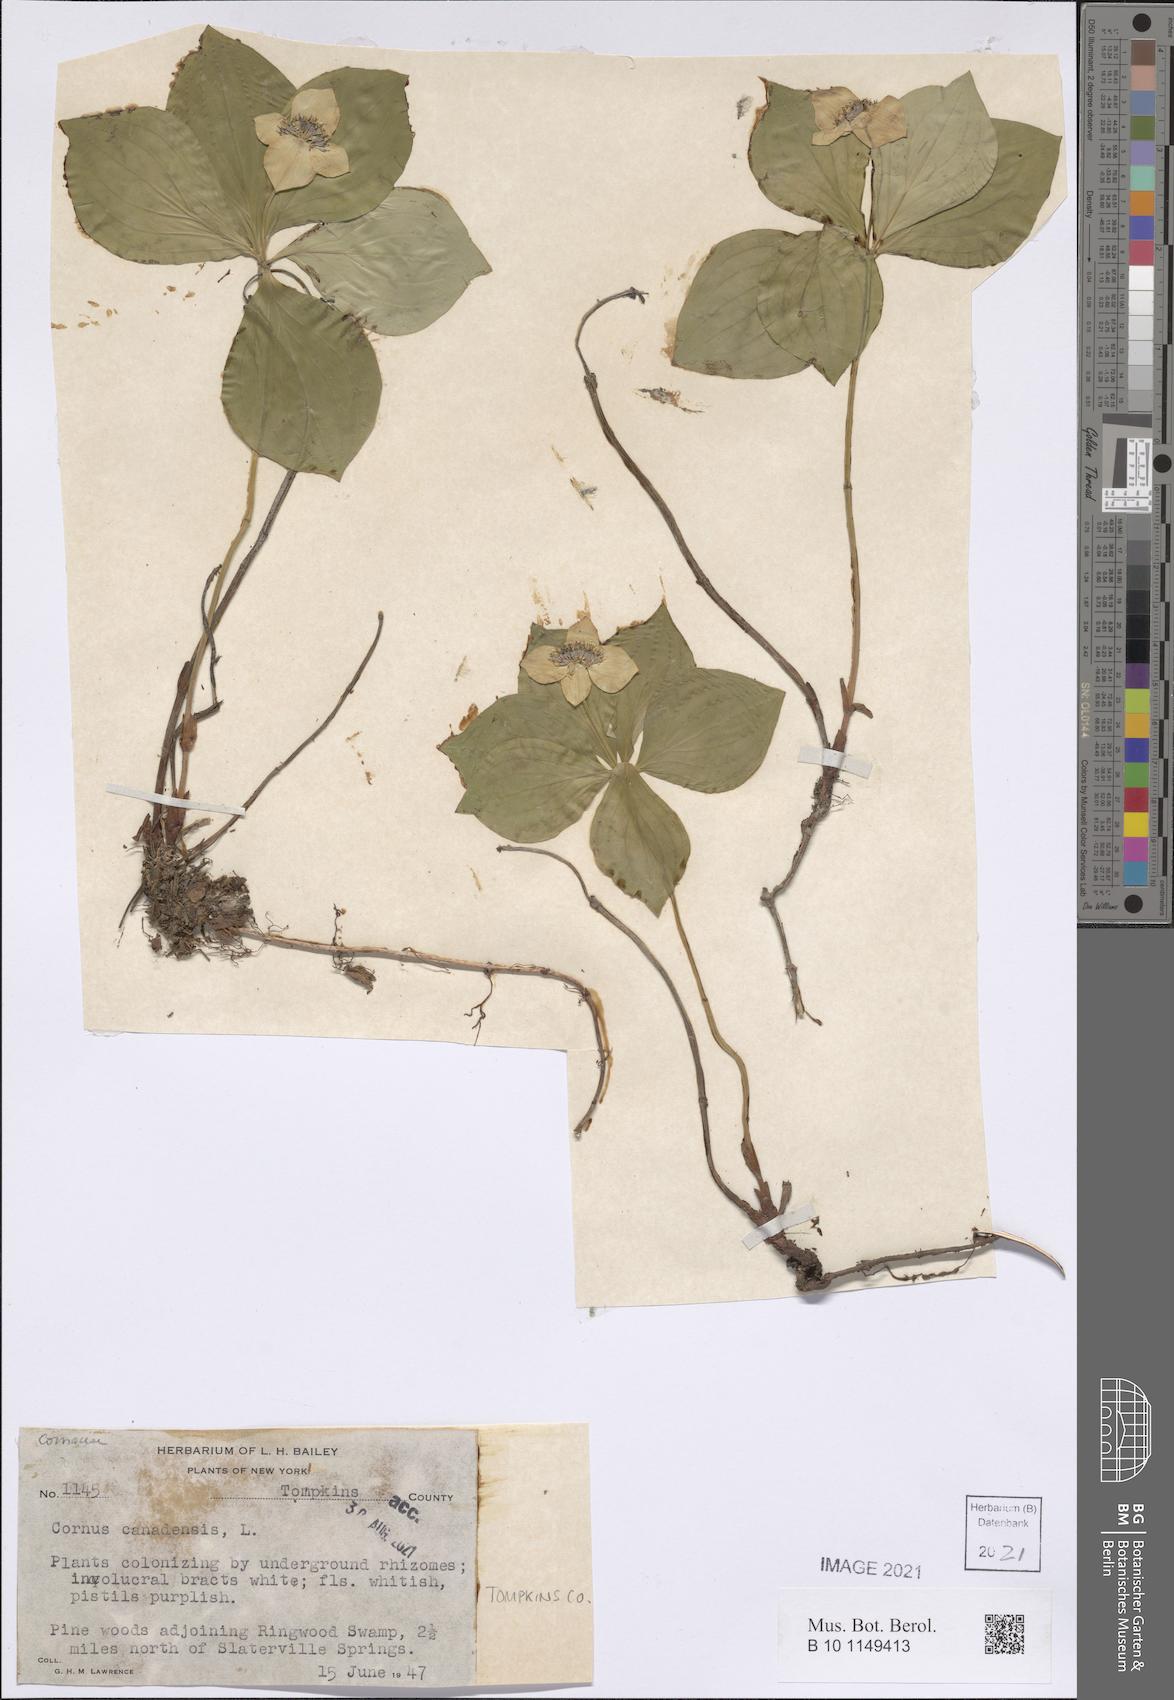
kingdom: Plantae
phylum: Tracheophyta
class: Magnoliopsida
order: Cornales
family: Cornaceae
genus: Cornus
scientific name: Cornus canadensis
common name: Creeping dogwood
